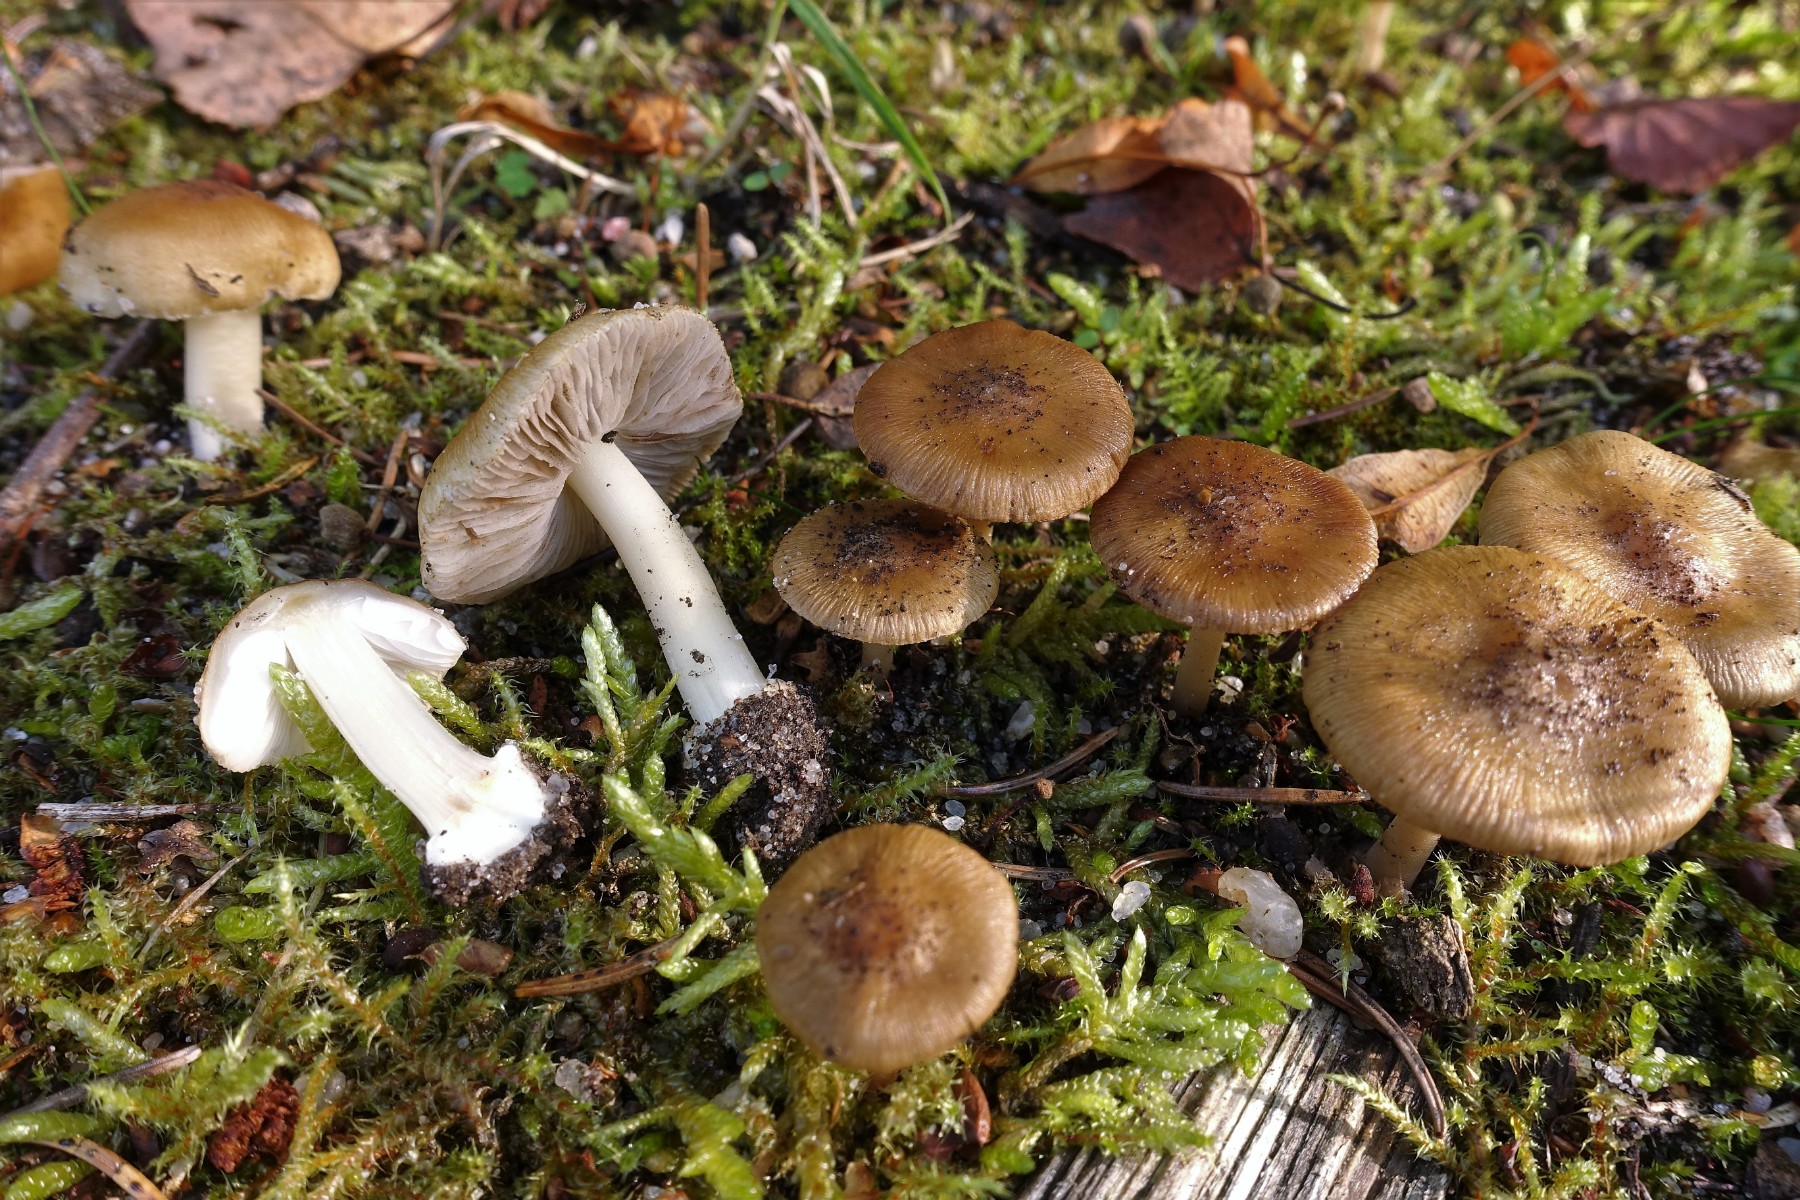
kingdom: Fungi
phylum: Basidiomycota
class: Agaricomycetes
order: Agaricales
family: Inocybaceae
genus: Inocybe
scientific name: Inocybe mixtilis
